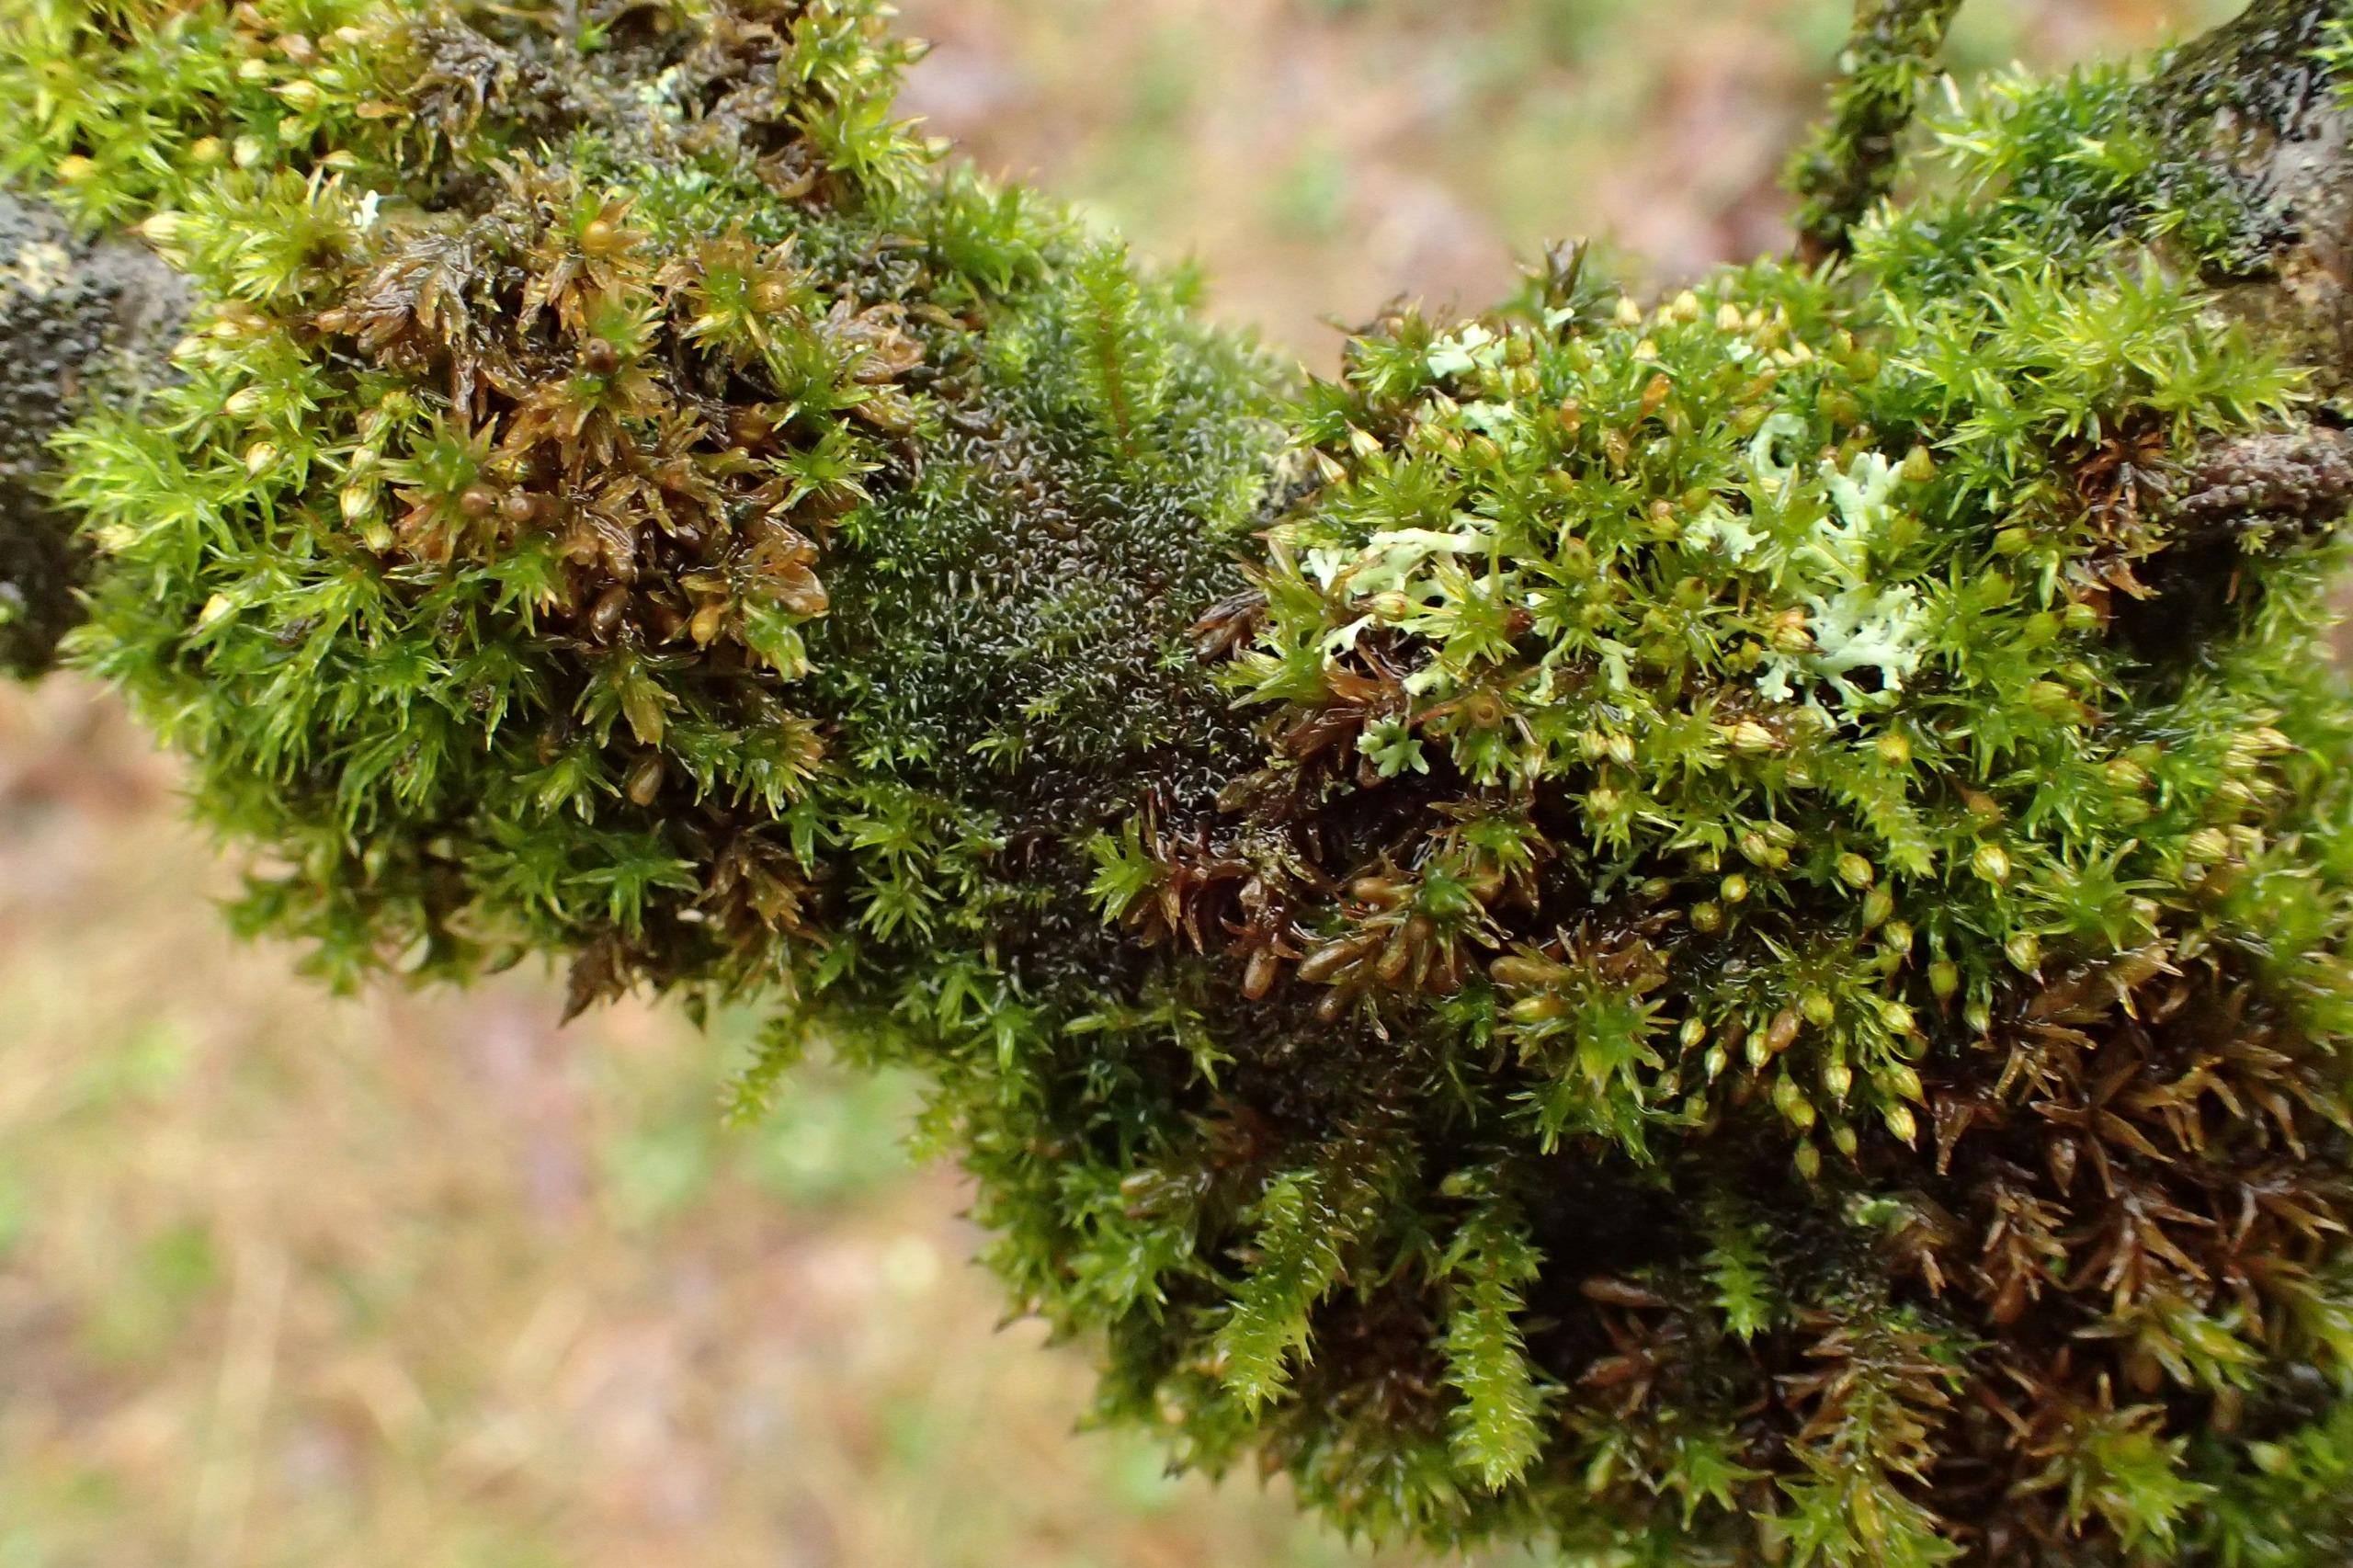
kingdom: Plantae
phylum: Bryophyta
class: Bryopsida
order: Hypnales
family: Cryphaeaceae
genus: Cryphaea
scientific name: Cryphaea heteromalla
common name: Bark-dækmos
